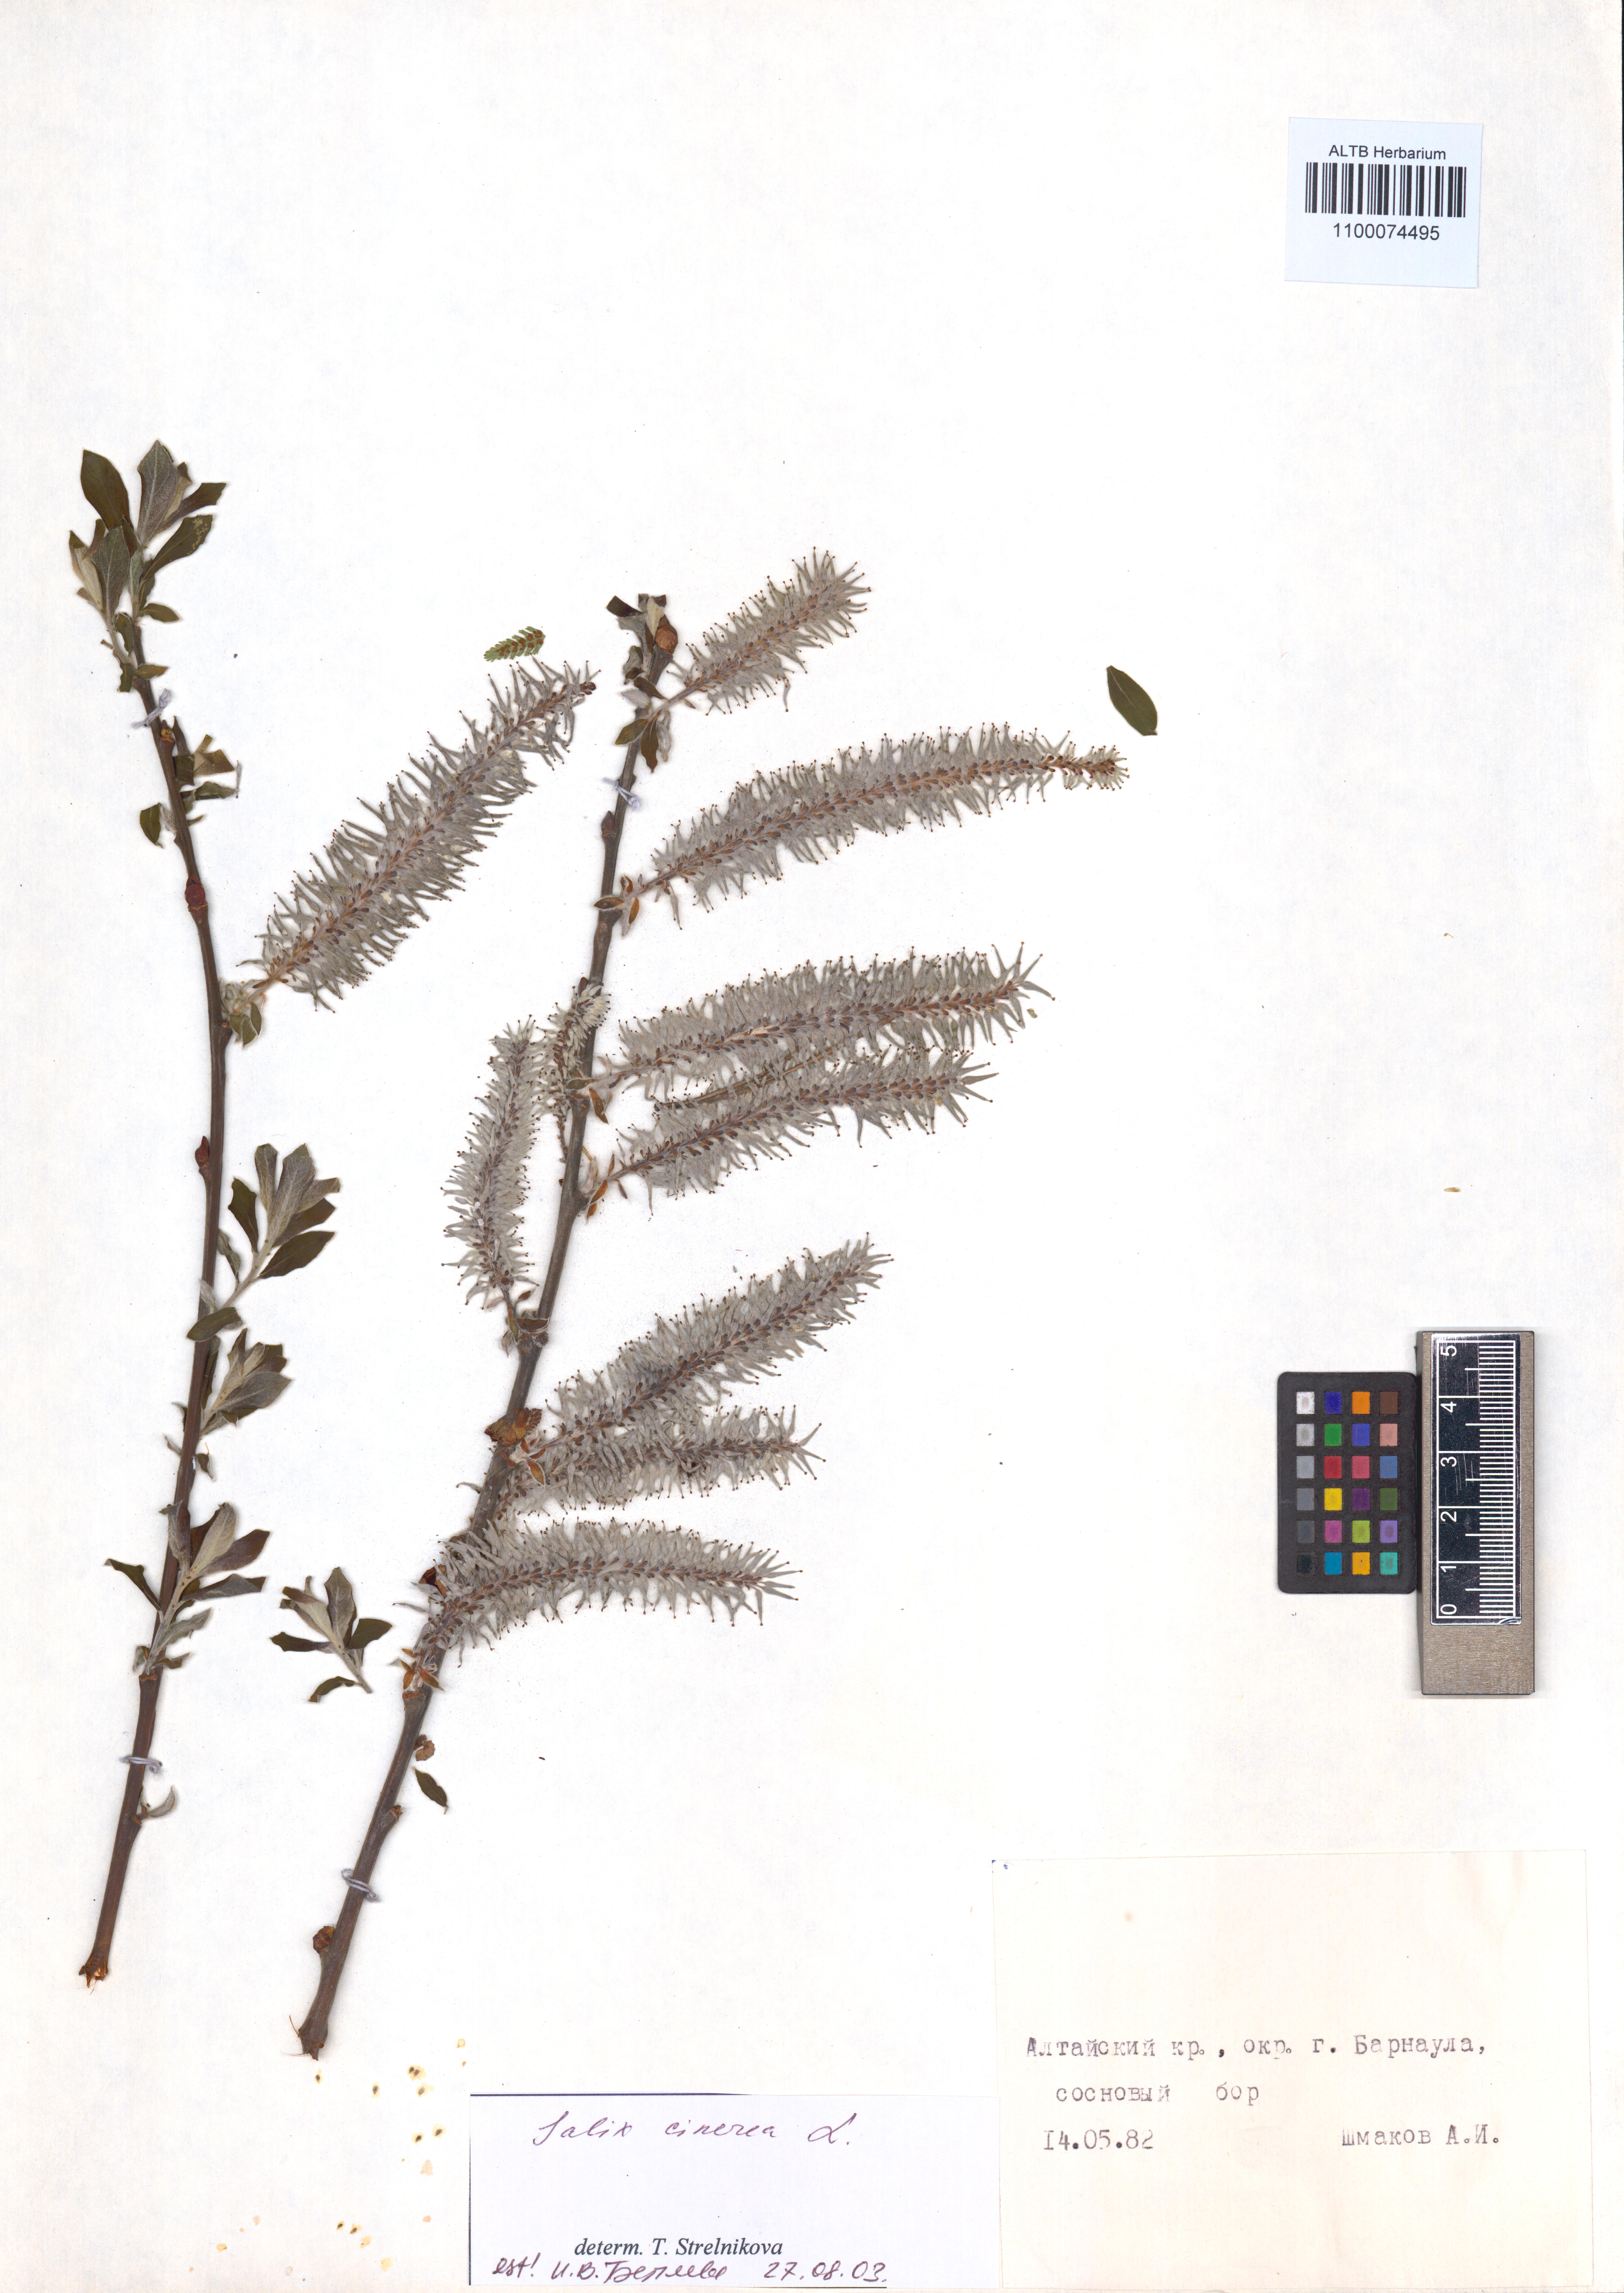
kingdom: Plantae
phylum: Tracheophyta
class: Magnoliopsida
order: Malpighiales
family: Salicaceae
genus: Salix
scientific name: Salix cinerea
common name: Common sallow
